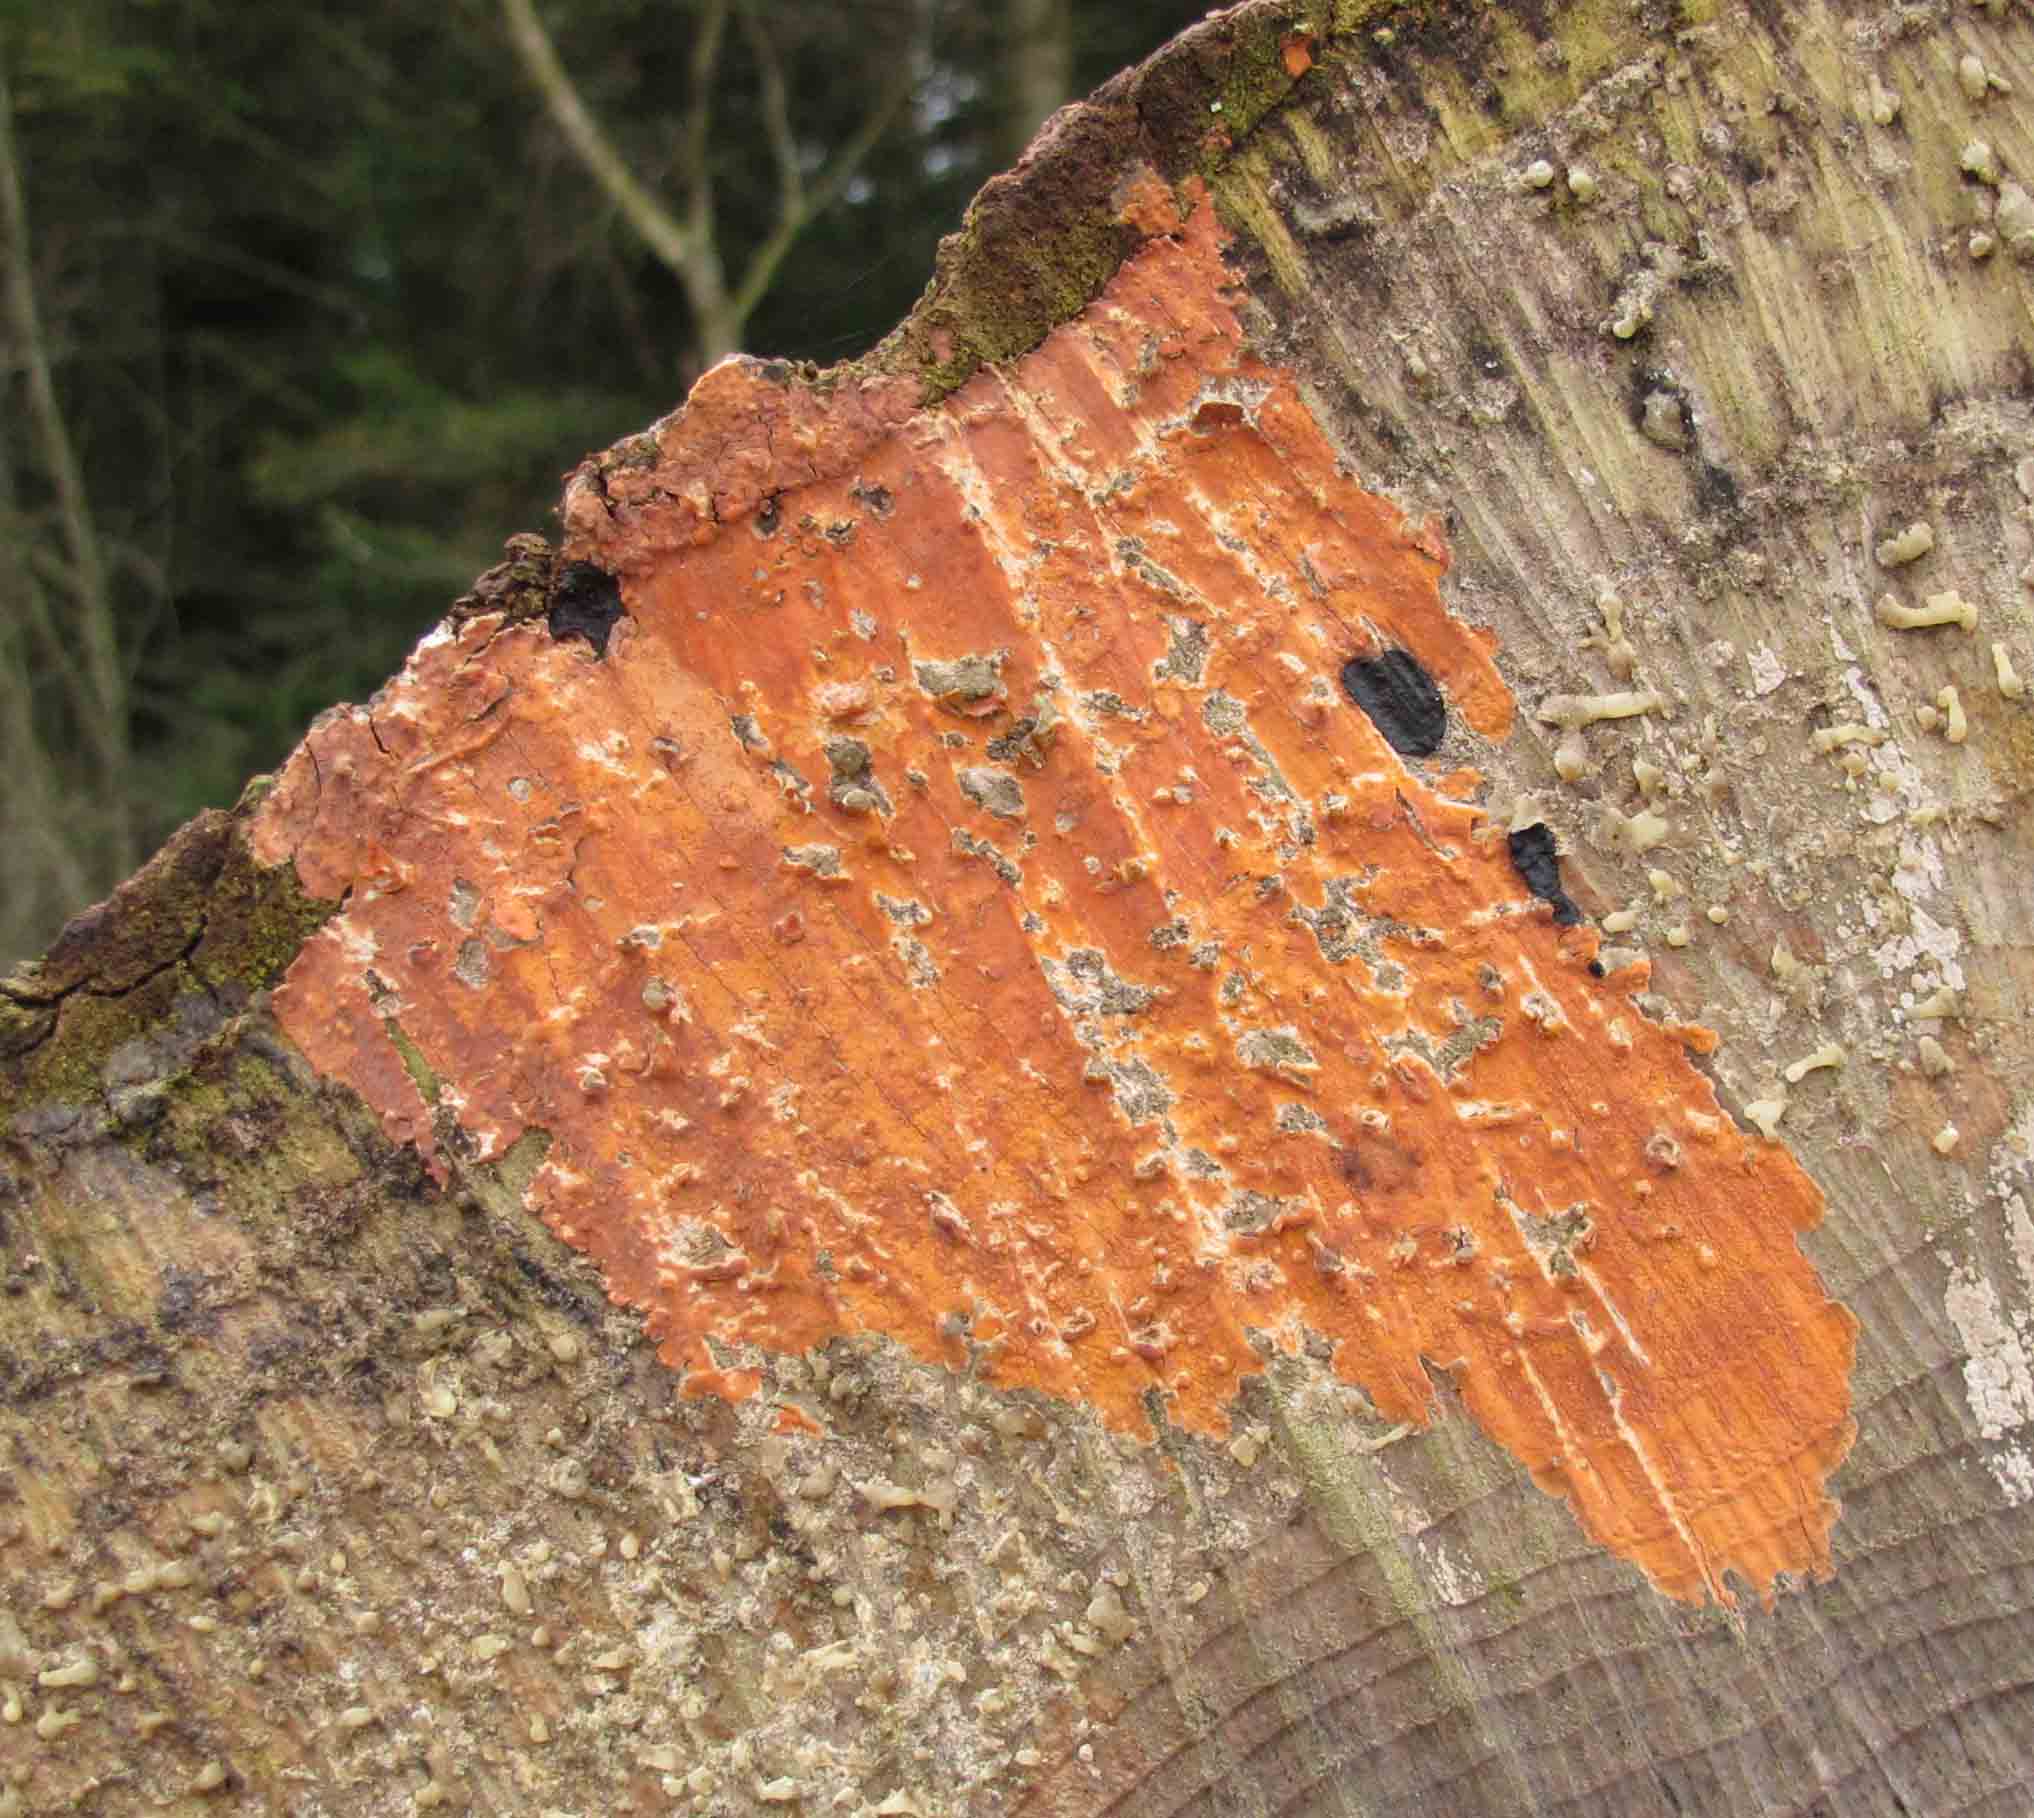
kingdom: Fungi
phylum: Basidiomycota
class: Agaricomycetes
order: Russulales
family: Peniophoraceae
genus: Peniophora
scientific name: Peniophora incarnata
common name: laksefarvet voksskind
